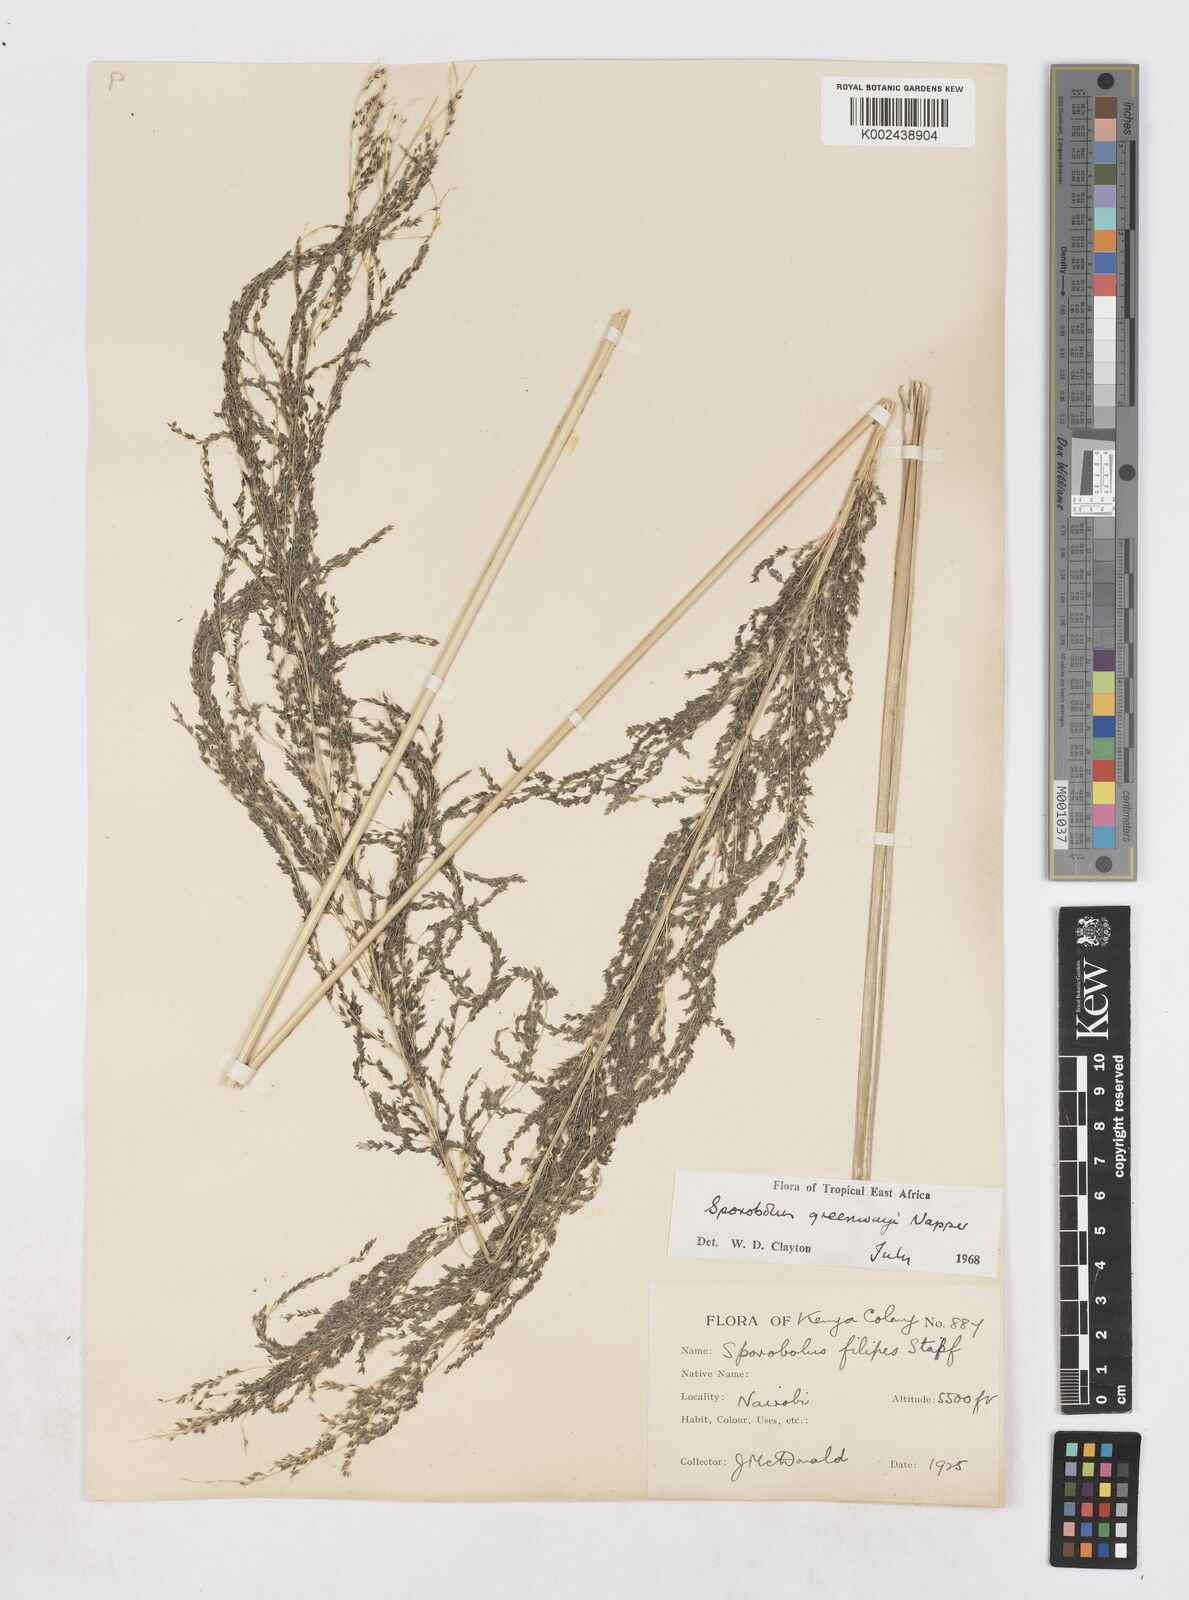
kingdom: Plantae
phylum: Tracheophyta
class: Liliopsida
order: Poales
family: Poaceae
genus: Sporobolus
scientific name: Sporobolus macranthelus
